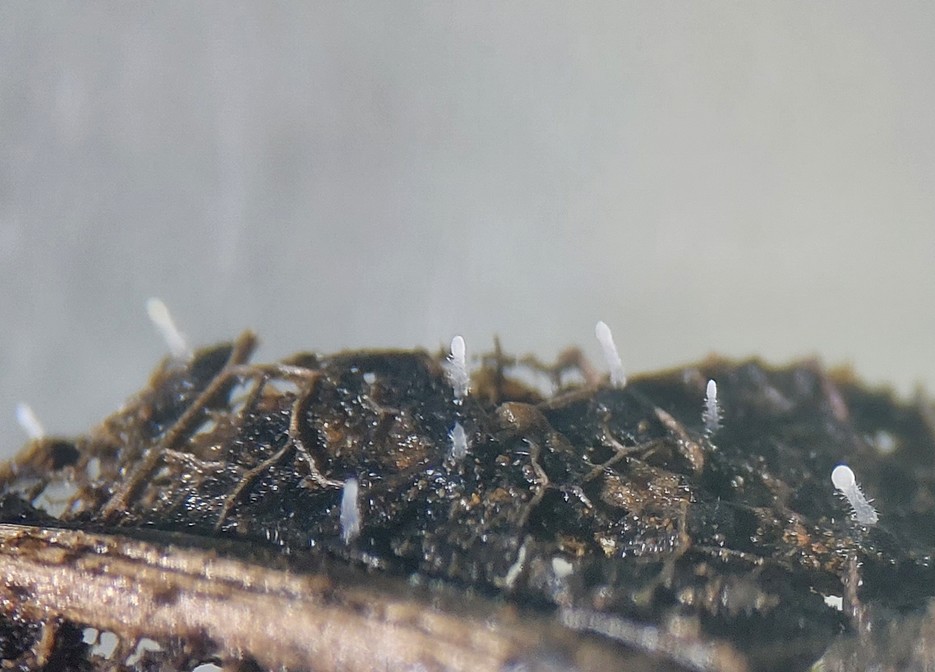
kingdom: Fungi
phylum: Basidiomycota
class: Agaricomycetes
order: Agaricales
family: Typhulaceae
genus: Typhula
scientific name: Typhula
